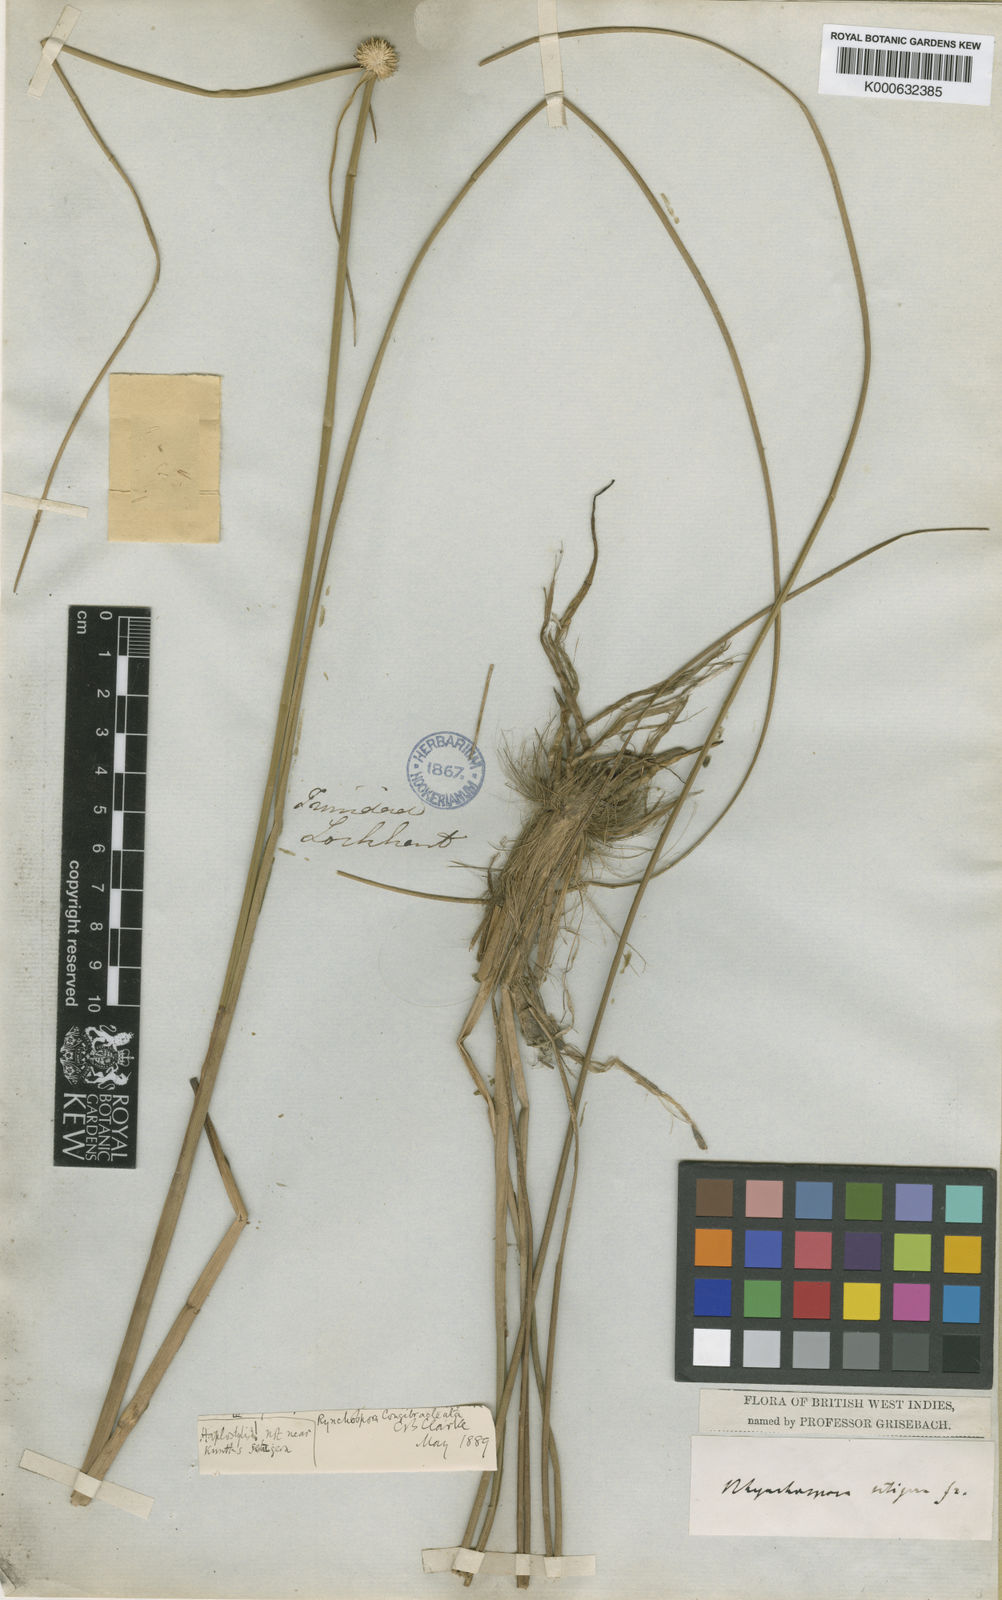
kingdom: Plantae
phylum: Tracheophyta
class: Liliopsida
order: Poales
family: Cyperaceae
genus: Rhynchospora
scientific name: Rhynchospora setigera
